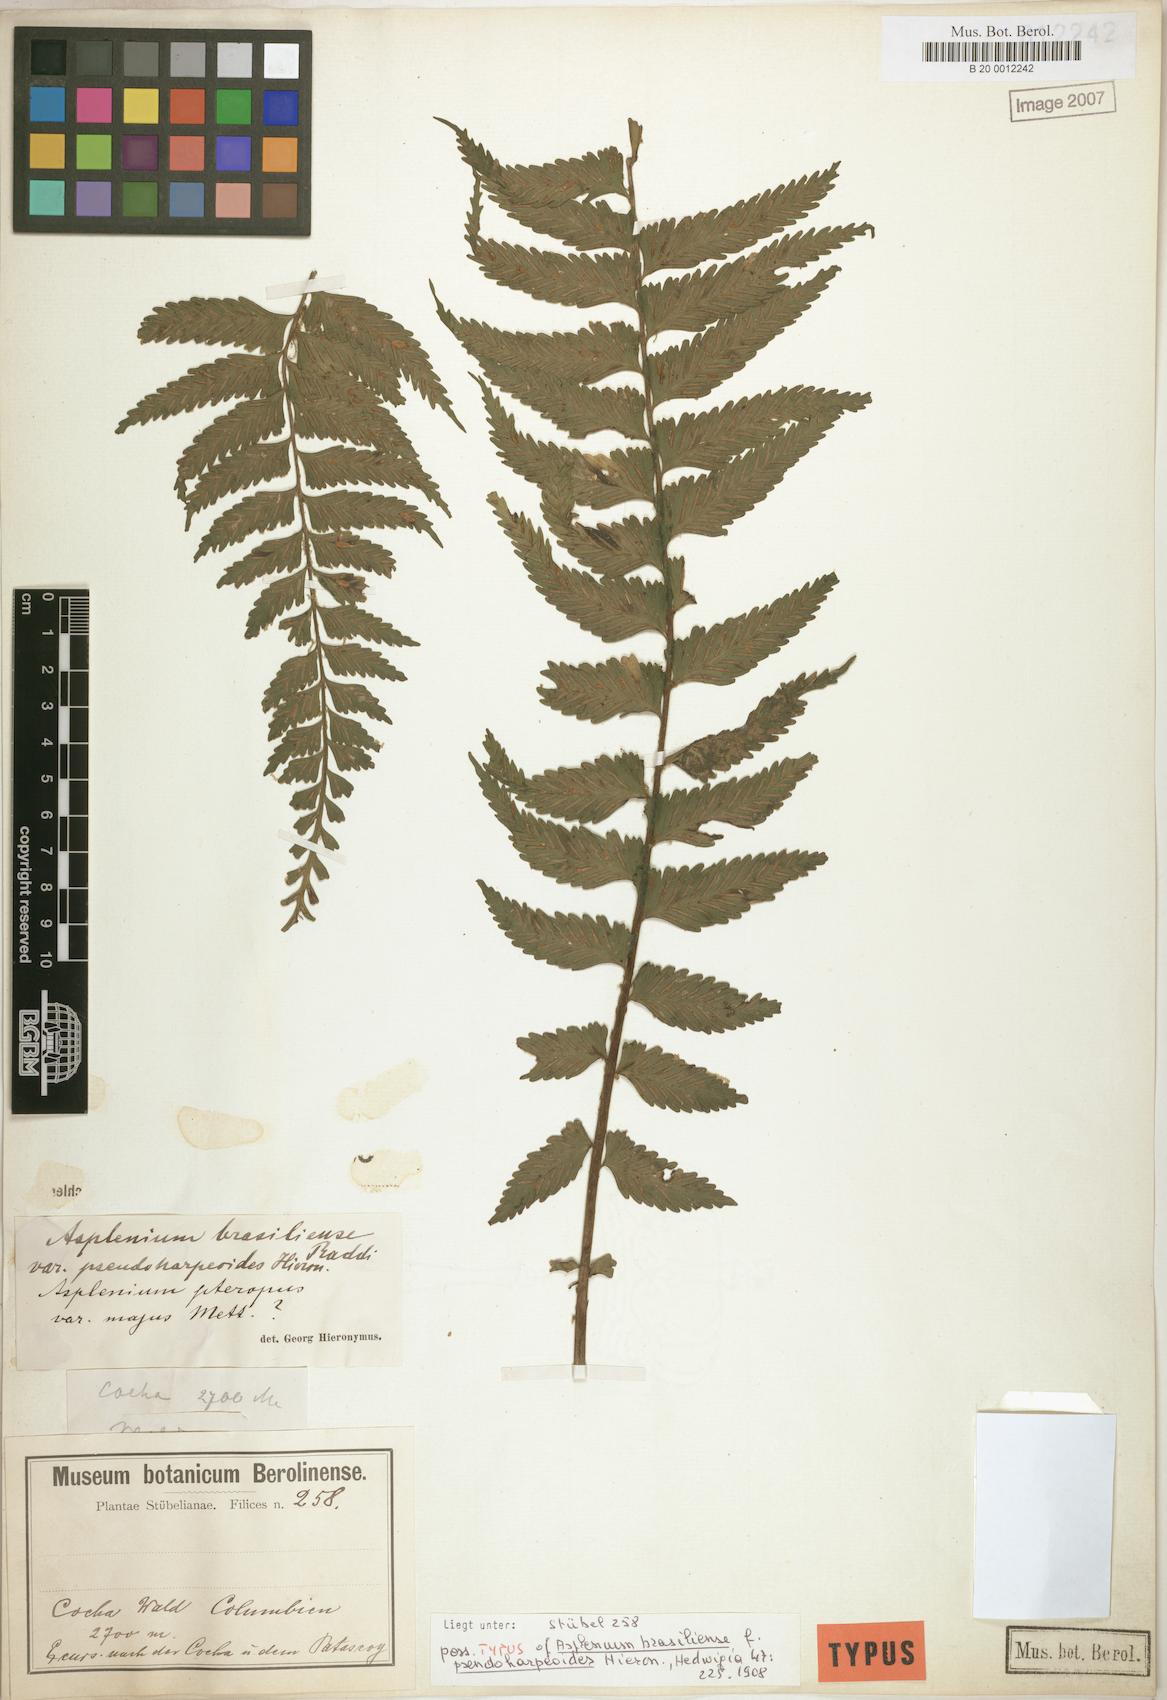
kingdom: Plantae
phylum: Tracheophyta
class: Polypodiopsida
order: Polypodiales
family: Aspleniaceae
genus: Asplenium
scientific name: Asplenium raddianum
